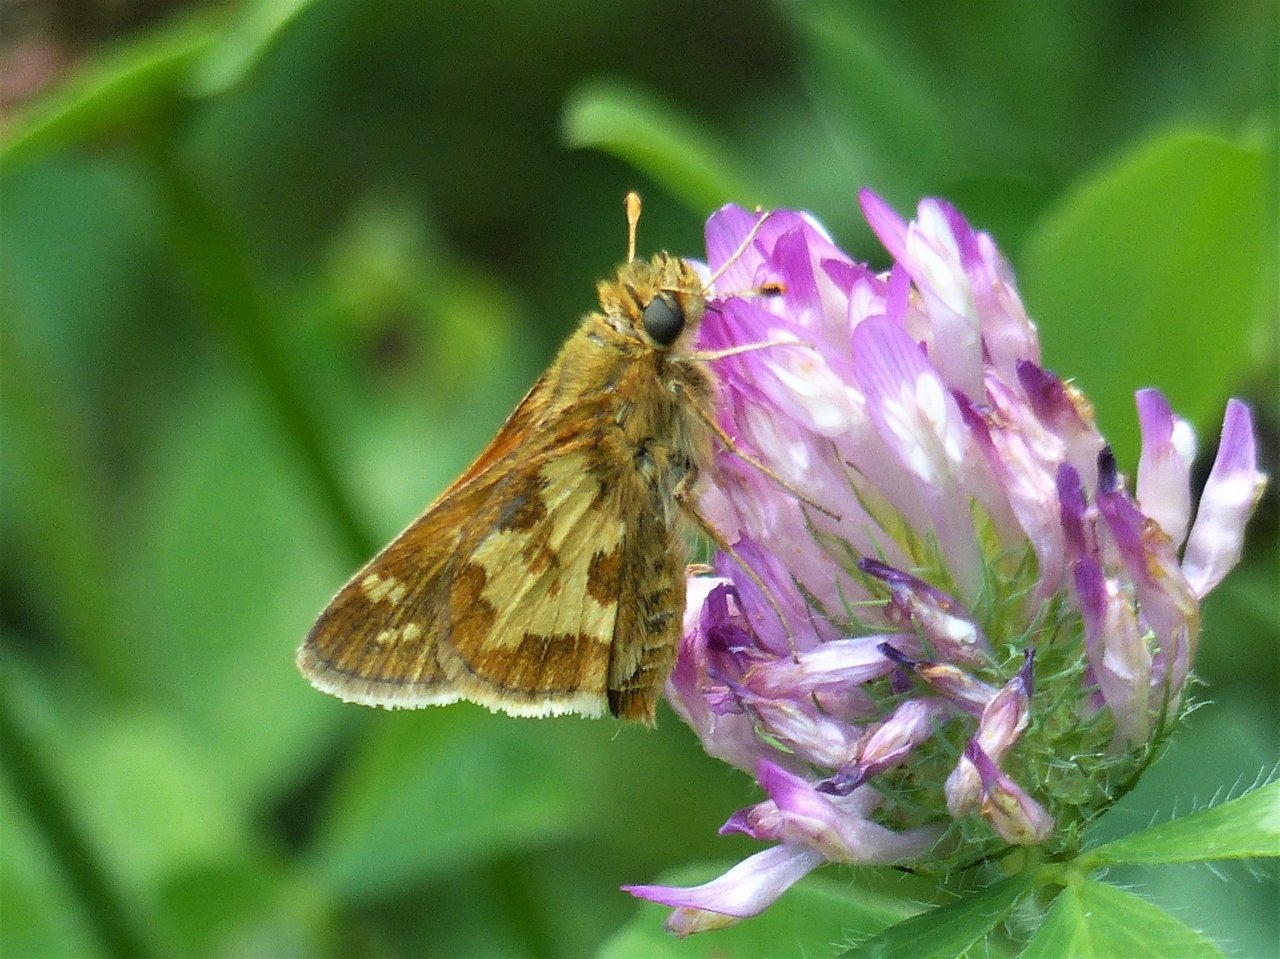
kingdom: Animalia
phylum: Arthropoda
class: Insecta
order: Lepidoptera
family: Hesperiidae
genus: Polites
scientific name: Polites coras
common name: Peck's Skipper
